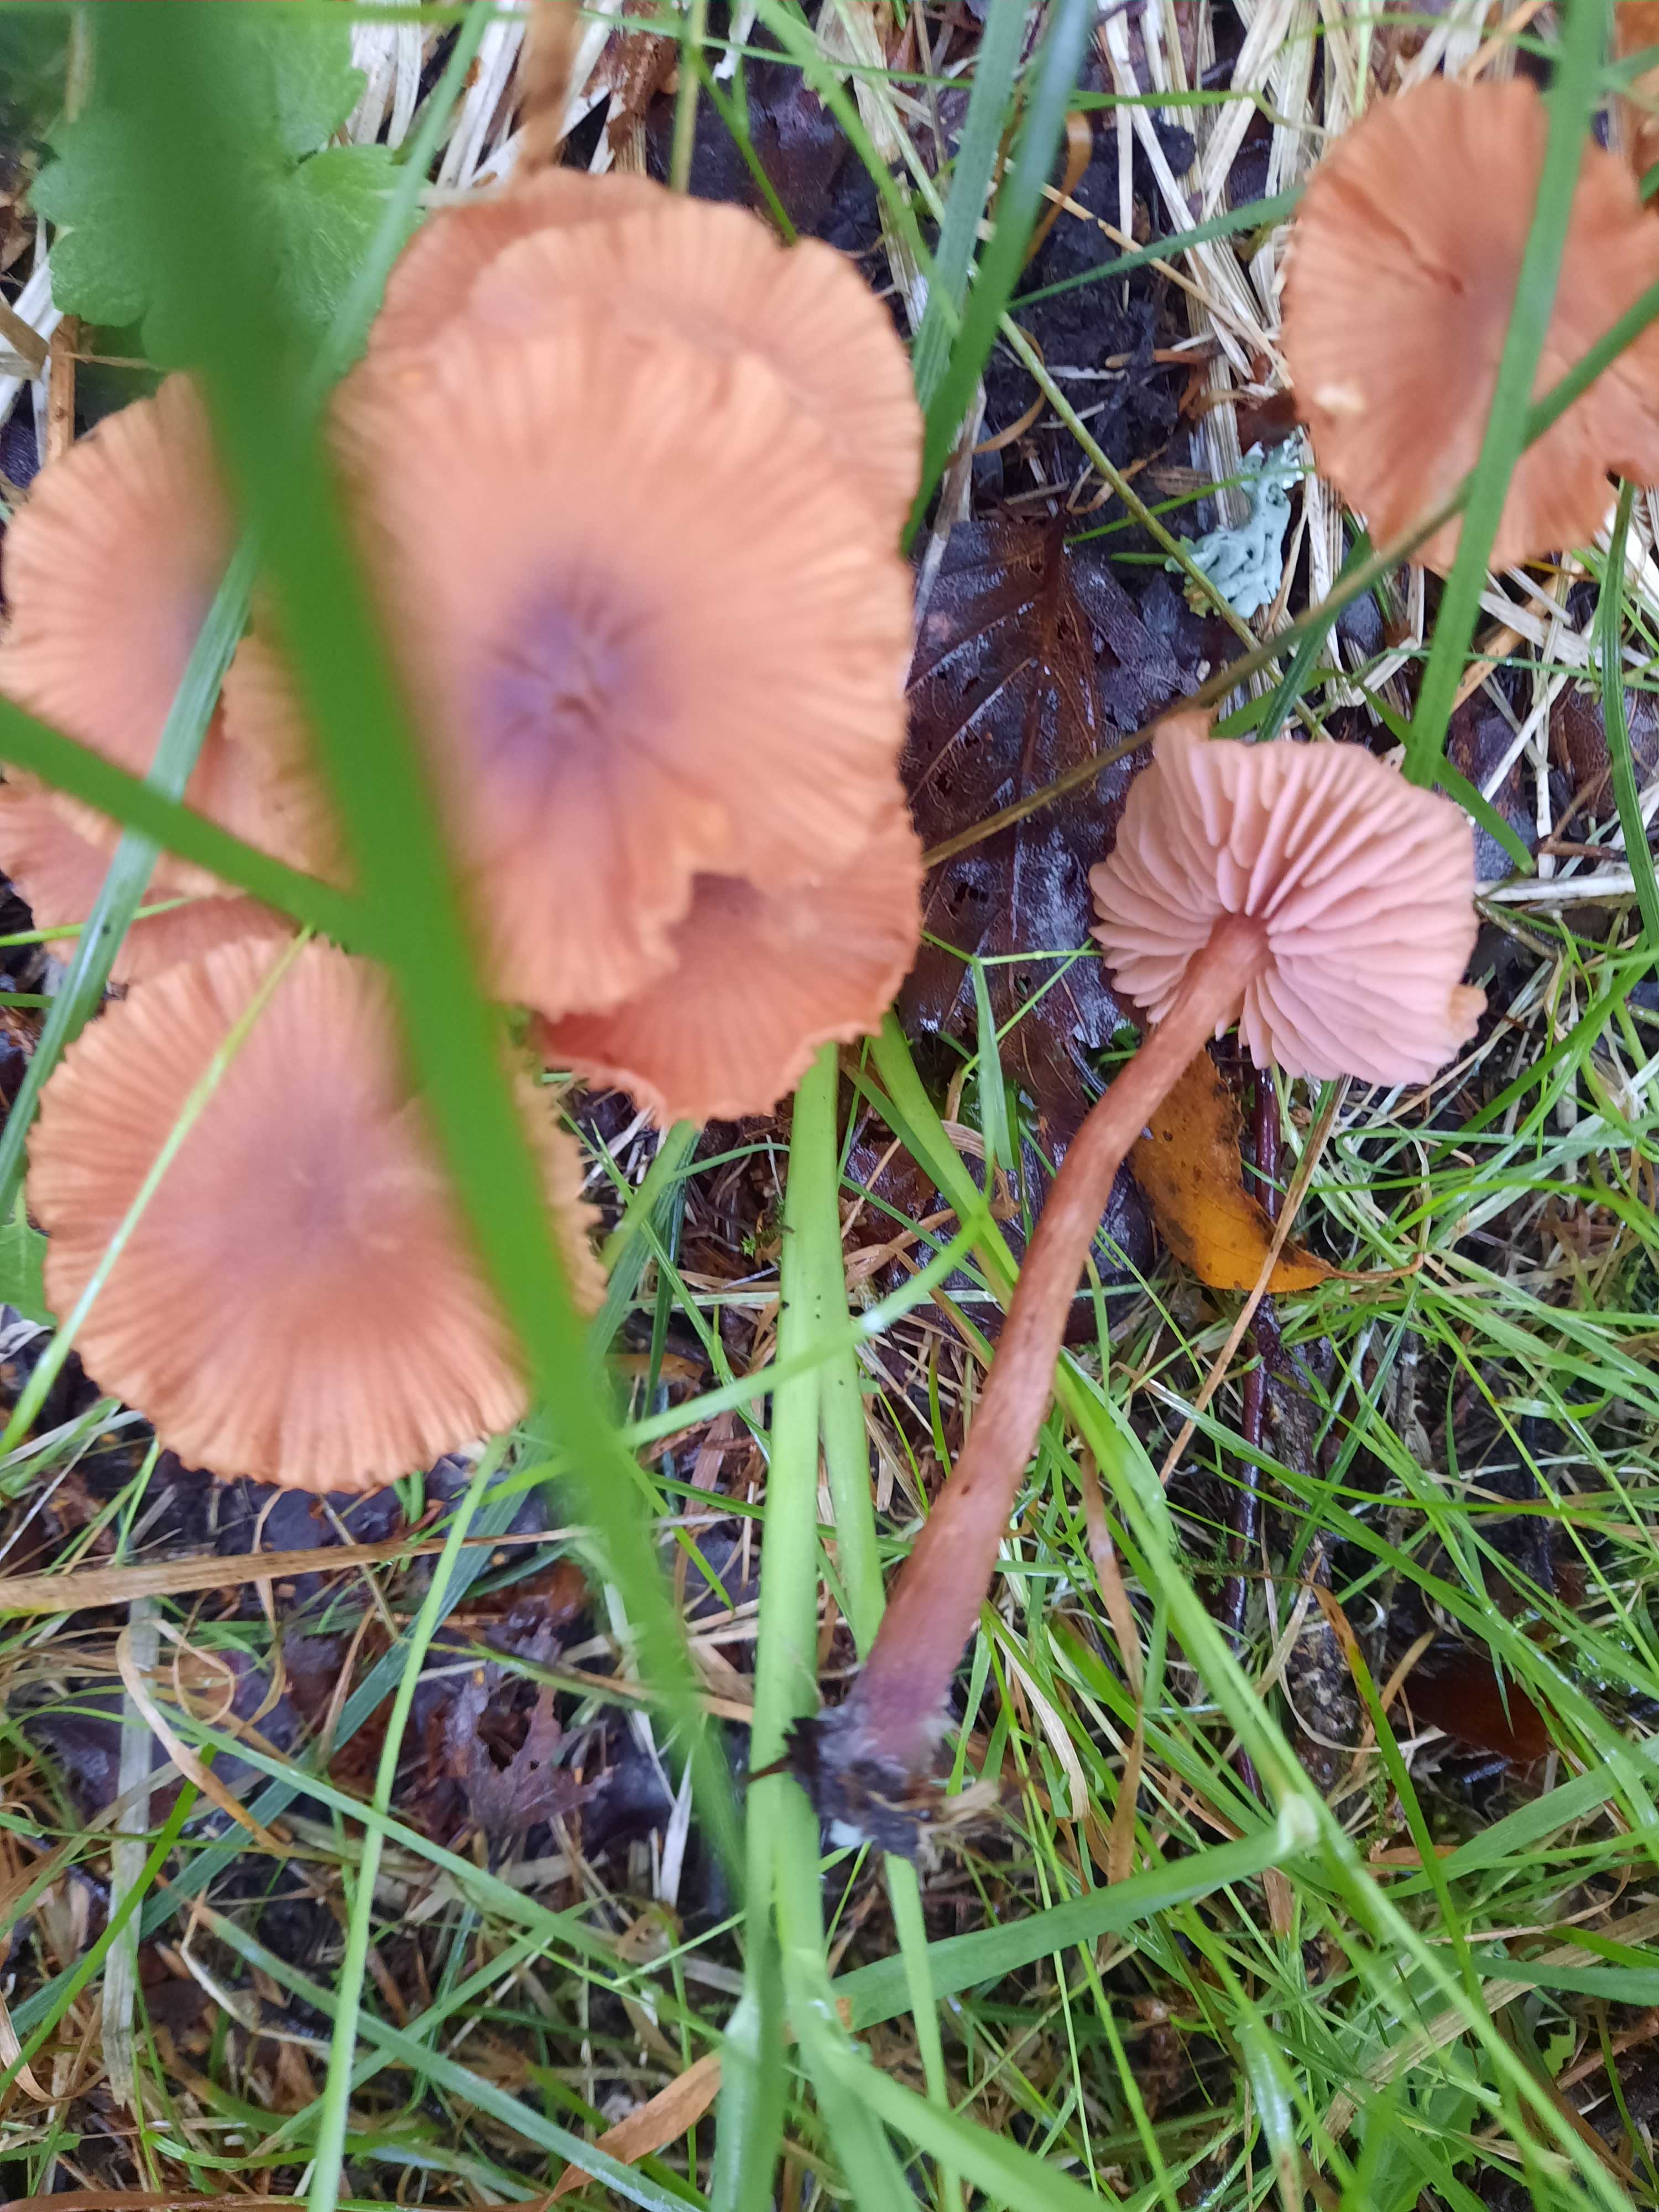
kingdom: Fungi
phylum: Basidiomycota
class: Agaricomycetes
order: Agaricales
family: Hydnangiaceae
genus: Laccaria
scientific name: Laccaria laccata
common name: rød ametysthat
